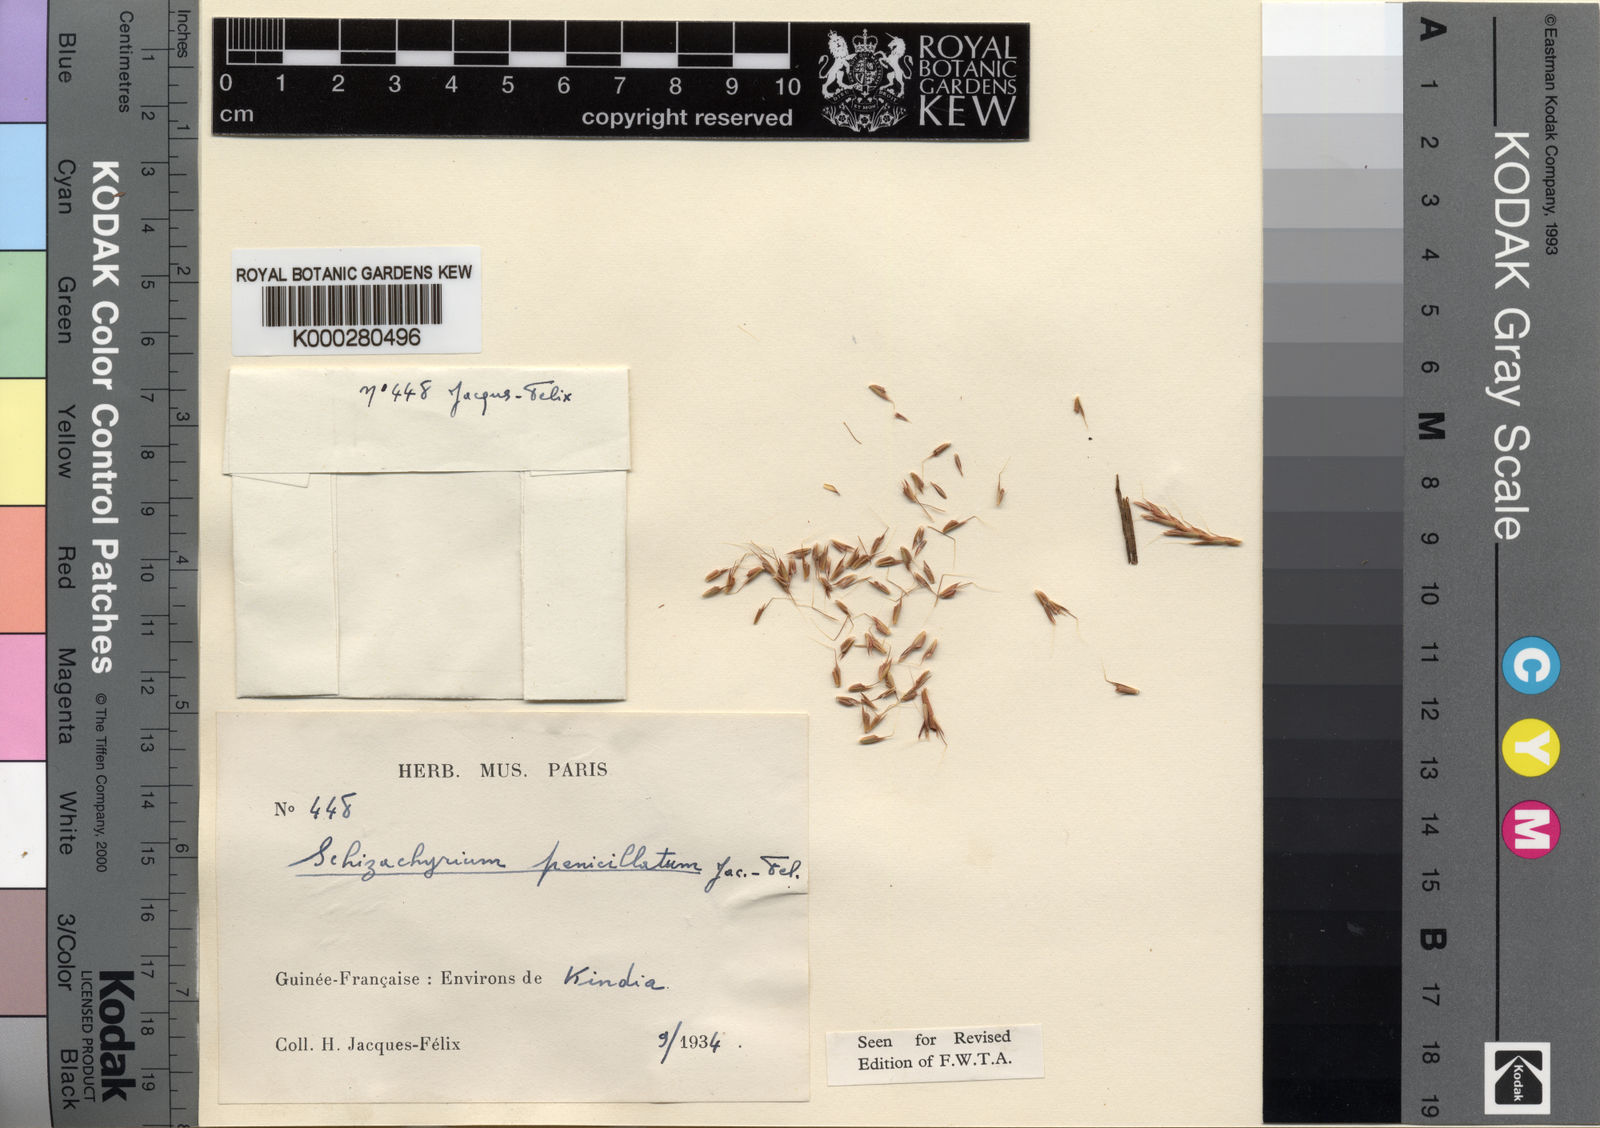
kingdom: Plantae
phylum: Tracheophyta
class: Liliopsida
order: Poales
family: Poaceae
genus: Schizachyrium
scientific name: Schizachyrium
